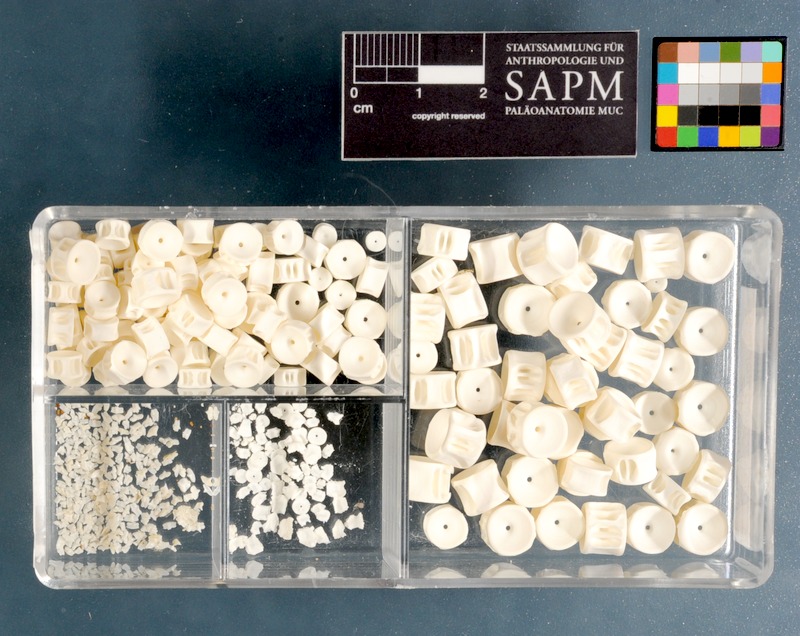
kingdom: Animalia
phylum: Chordata
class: Elasmobranchii
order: Carcharhiniformes
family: Triakidae
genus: Triakis
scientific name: Triakis megalopterus
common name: Spotted gully shark
